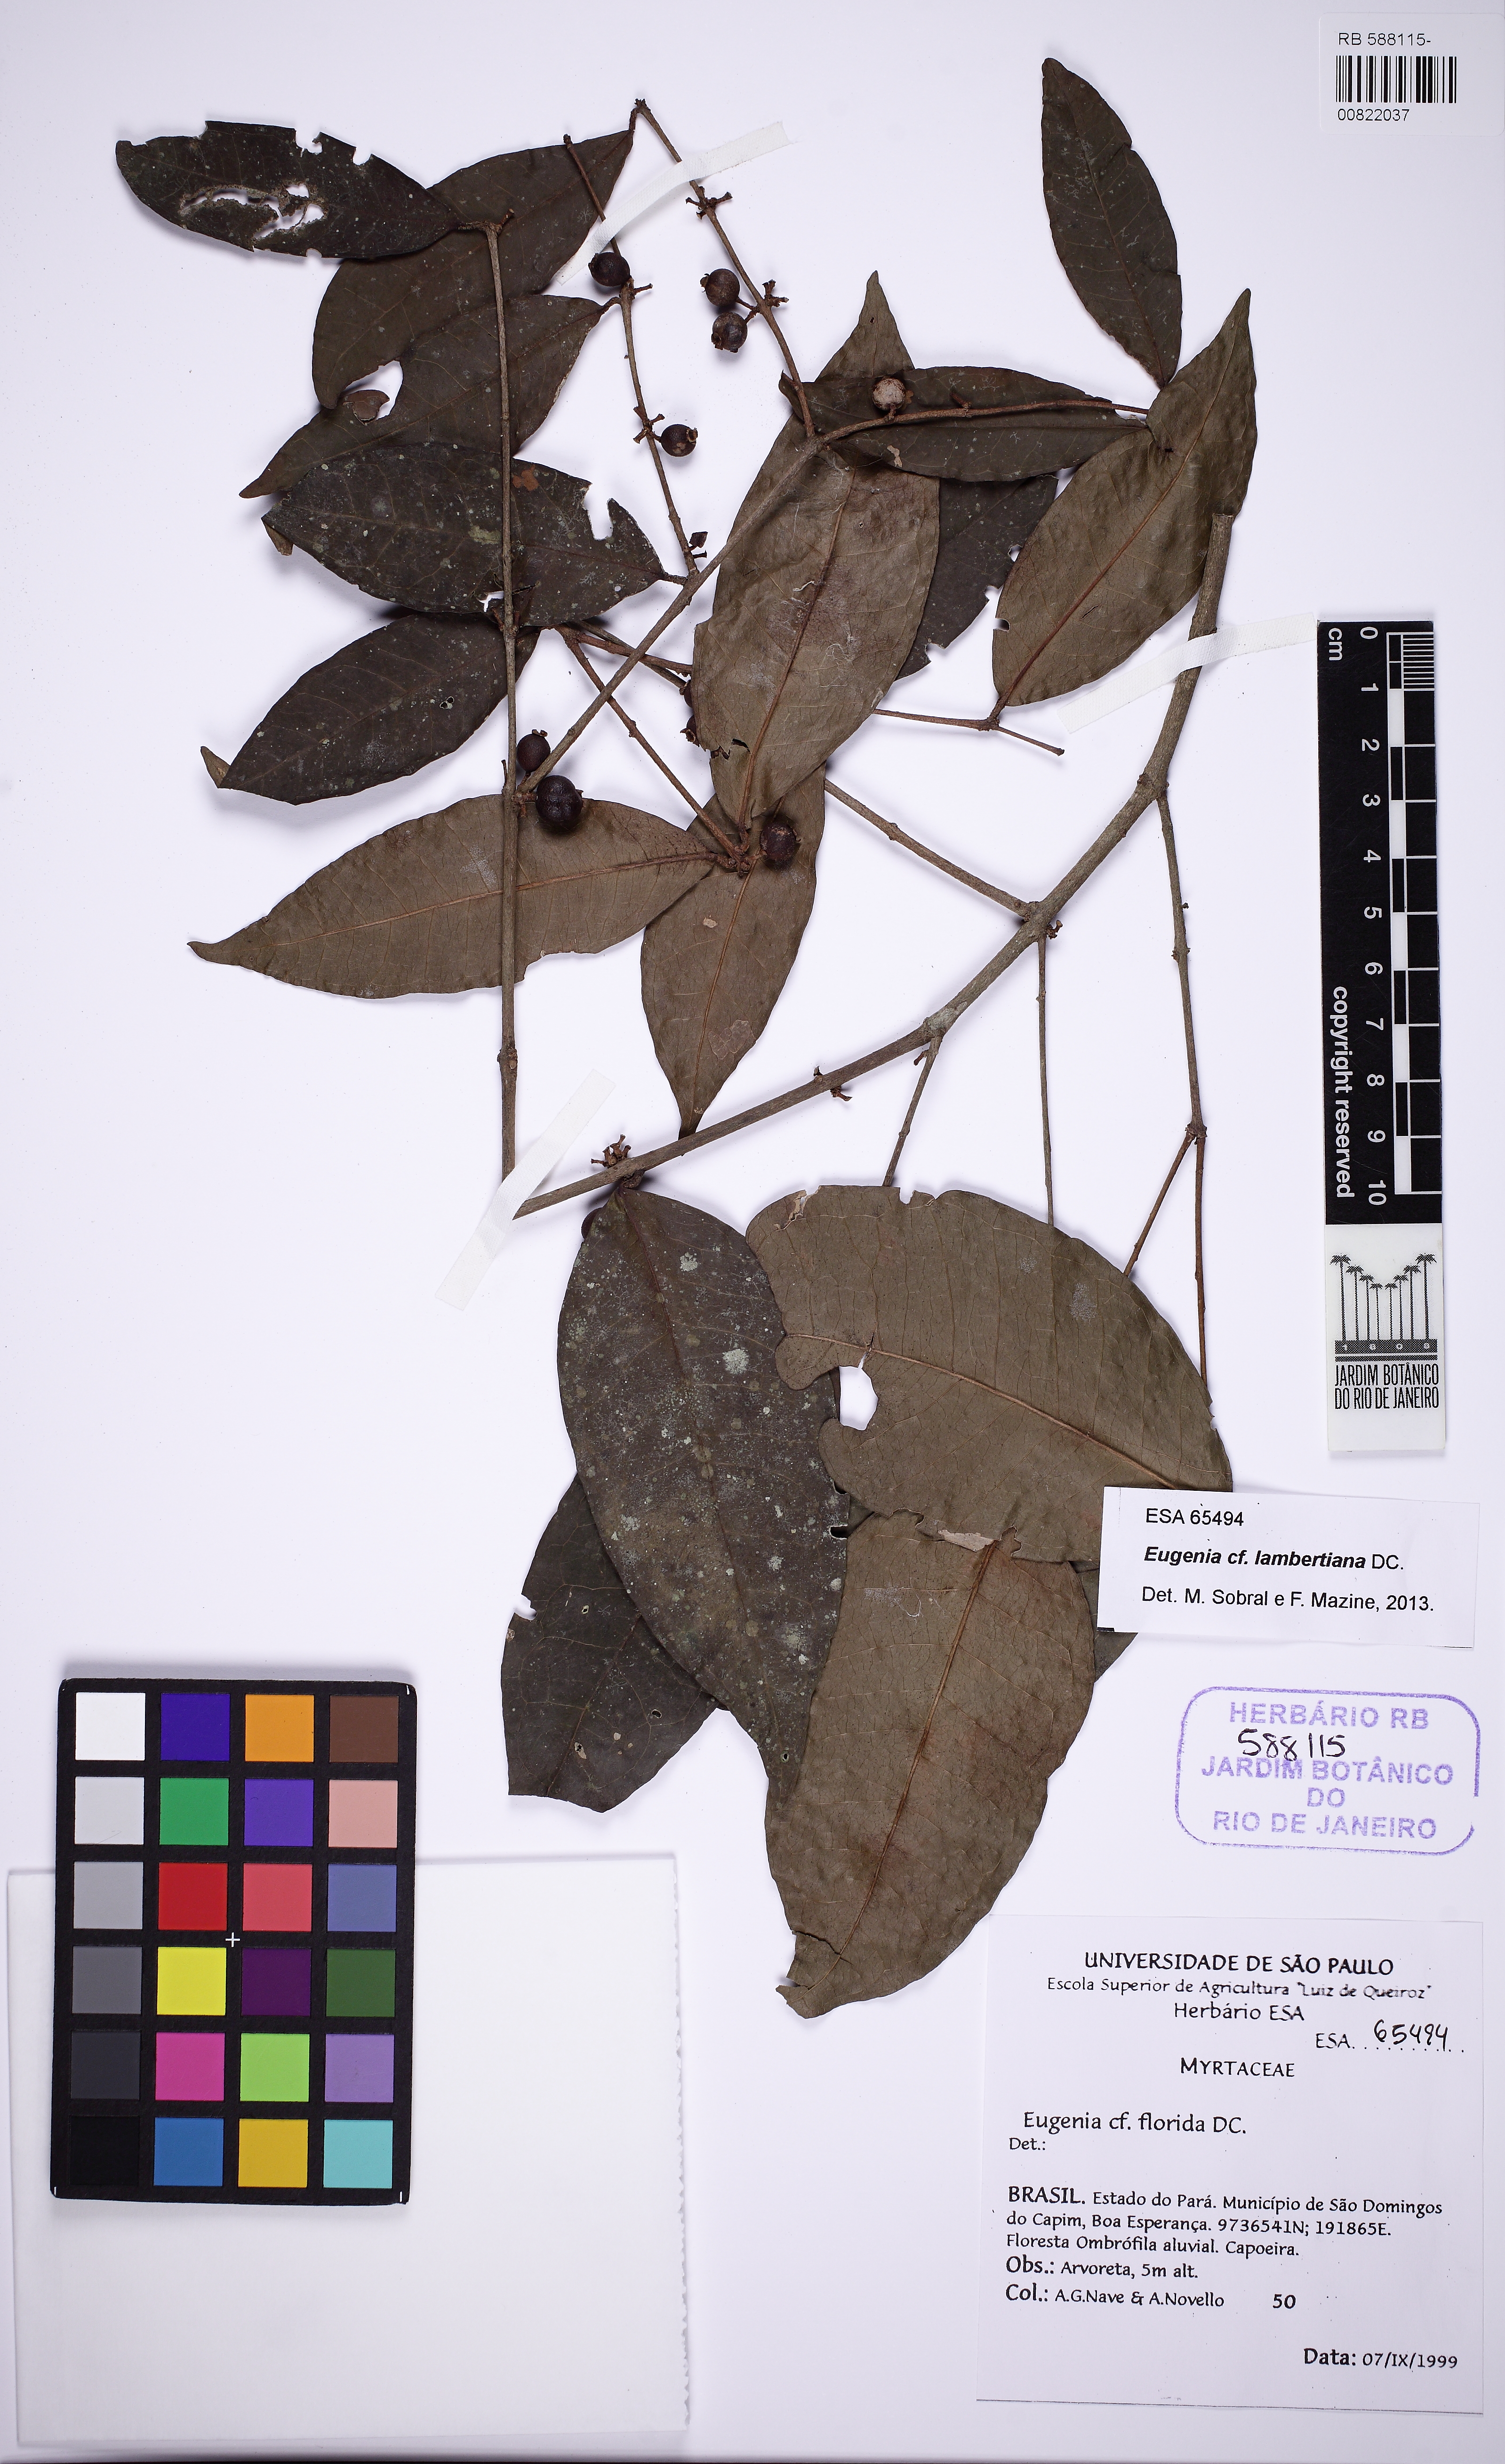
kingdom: Plantae
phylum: Tracheophyta
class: Magnoliopsida
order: Myrtales
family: Myrtaceae
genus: Eugenia
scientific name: Eugenia lambertiana
